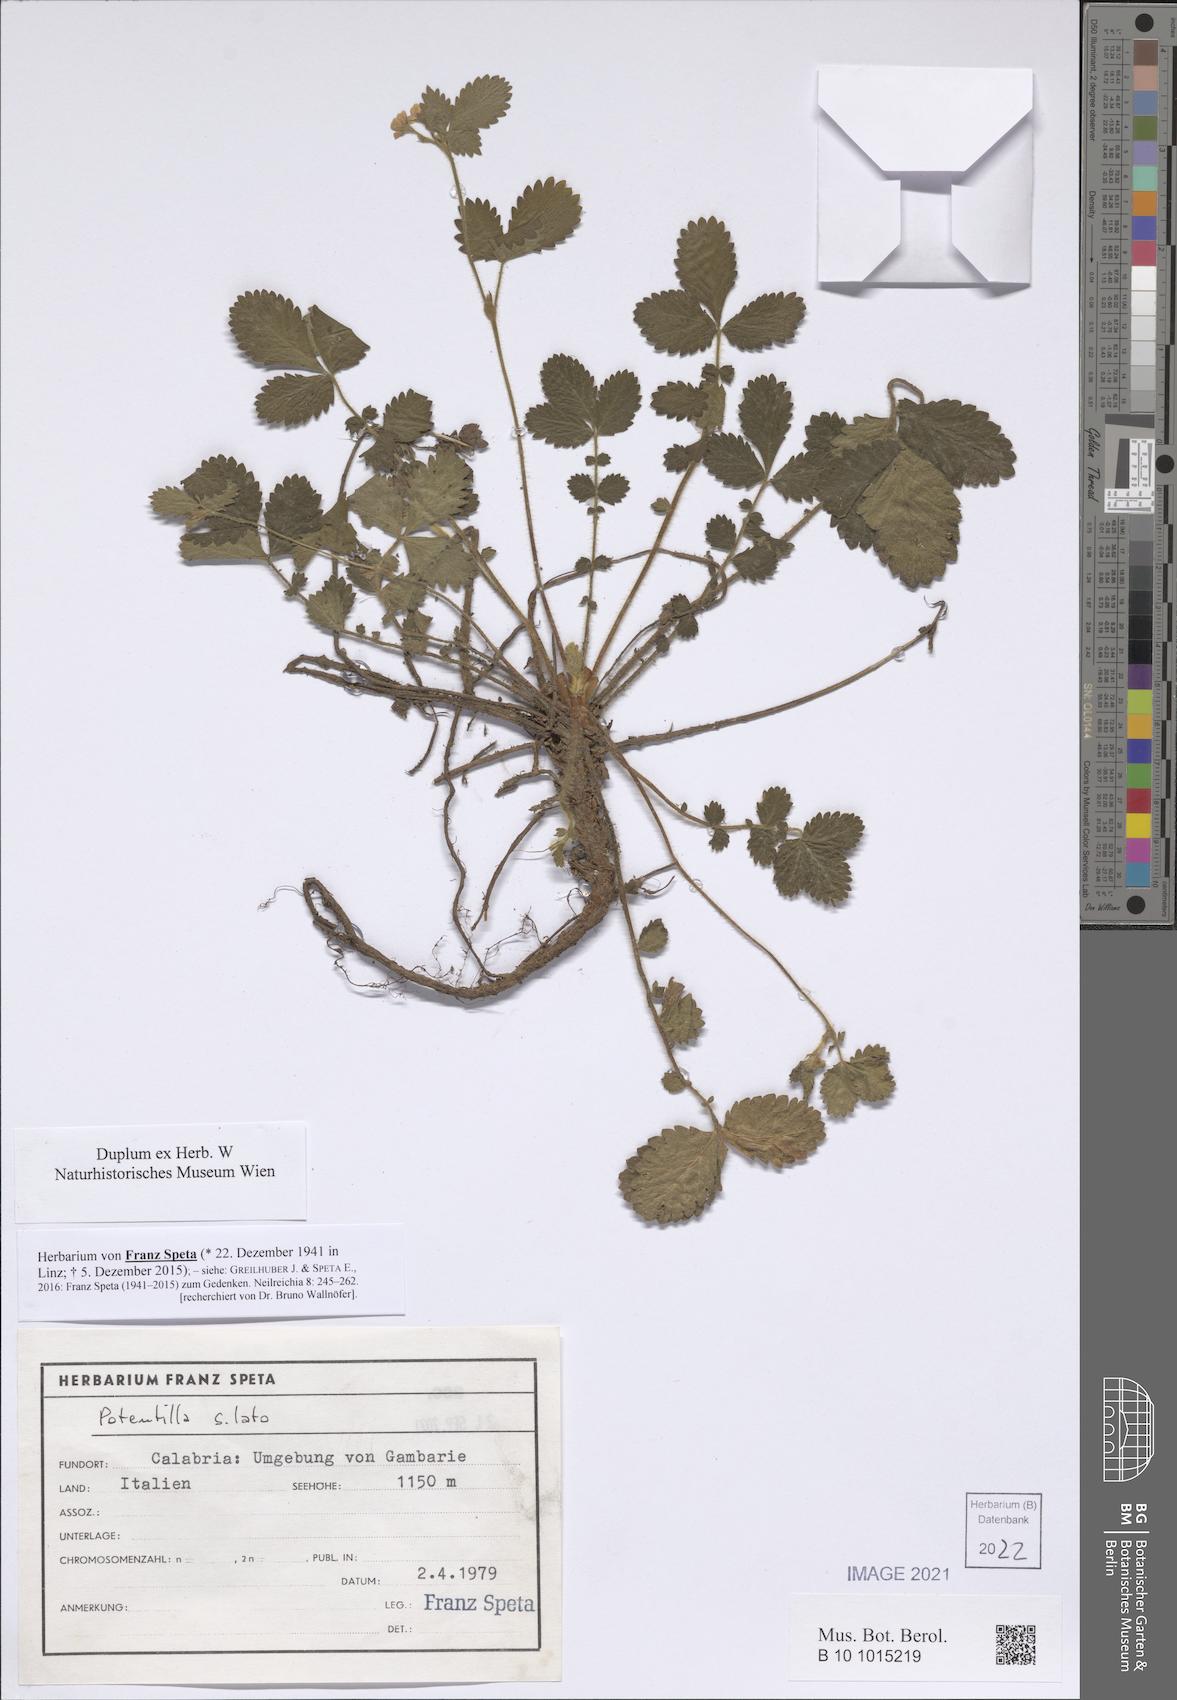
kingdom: Plantae
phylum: Tracheophyta
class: Magnoliopsida
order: Rosales
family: Rosaceae
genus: Potentilla
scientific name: Potentilla
